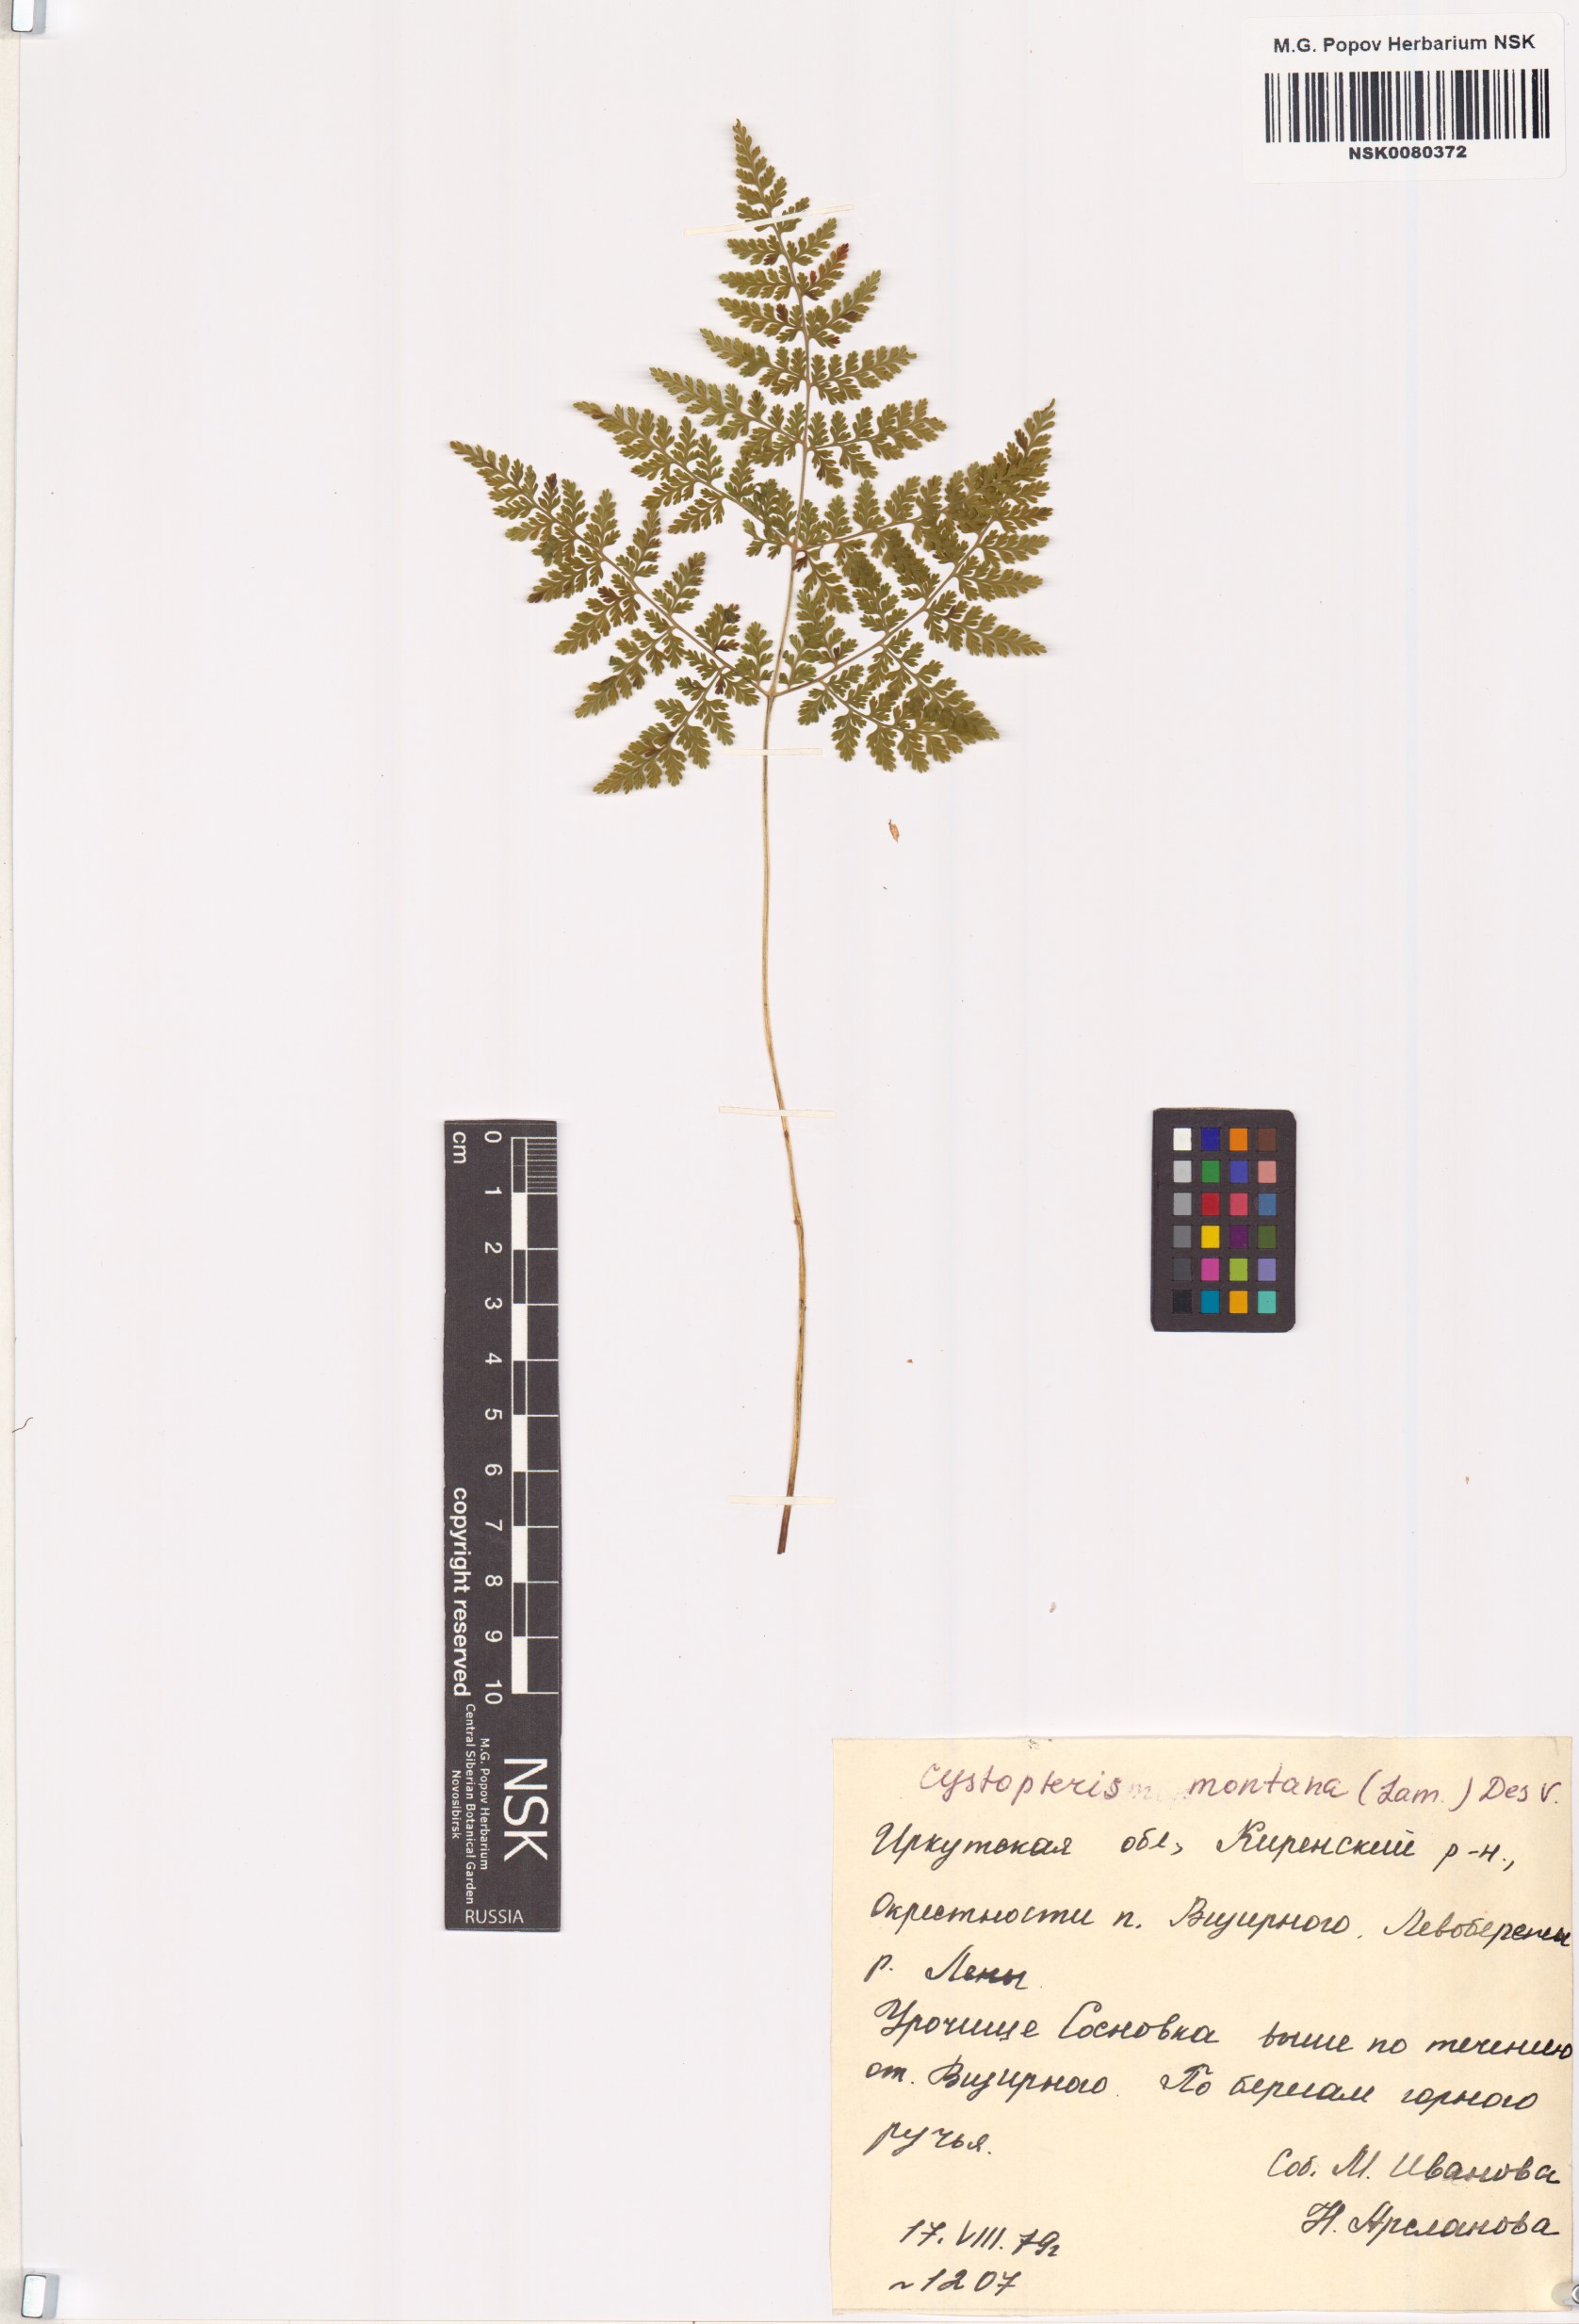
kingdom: Plantae
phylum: Tracheophyta
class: Polypodiopsida
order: Polypodiales
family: Cystopteridaceae
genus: Cystopteris
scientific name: Cystopteris montana
